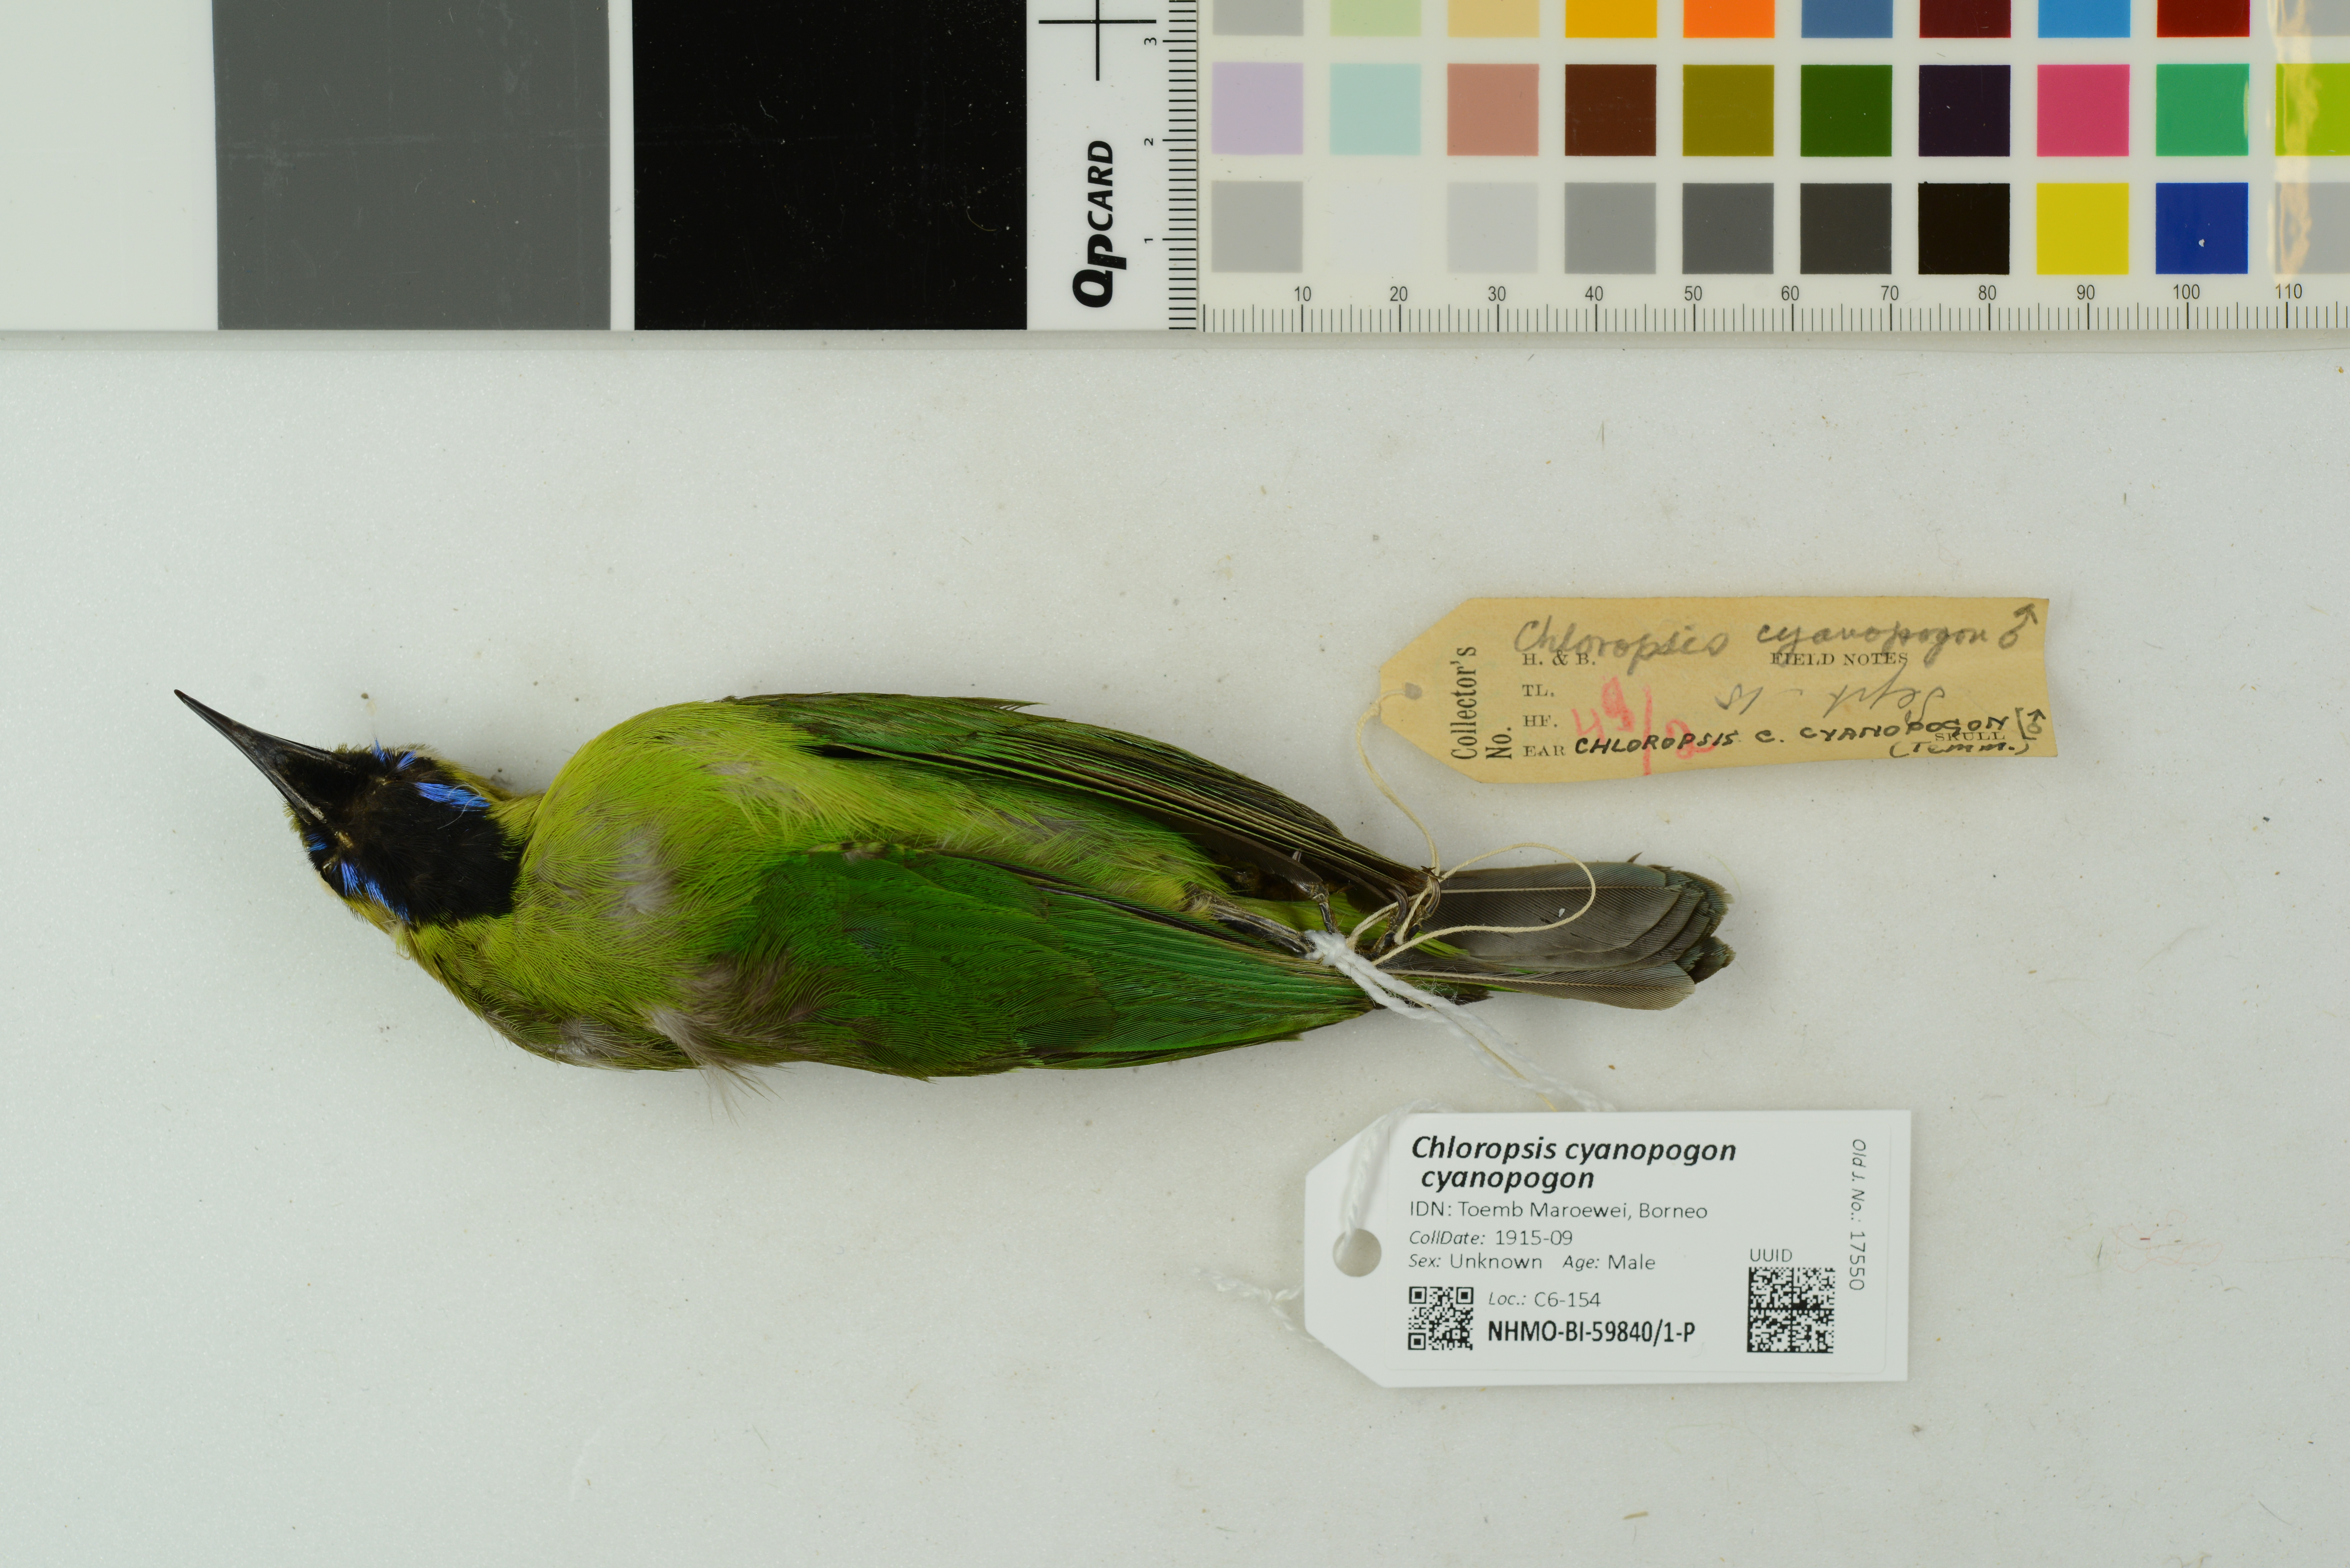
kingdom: Animalia
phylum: Chordata
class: Aves
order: Passeriformes
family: Chloropseidae
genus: Chloropsis
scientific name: Chloropsis cyanopogon
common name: Lesser green leafbird
